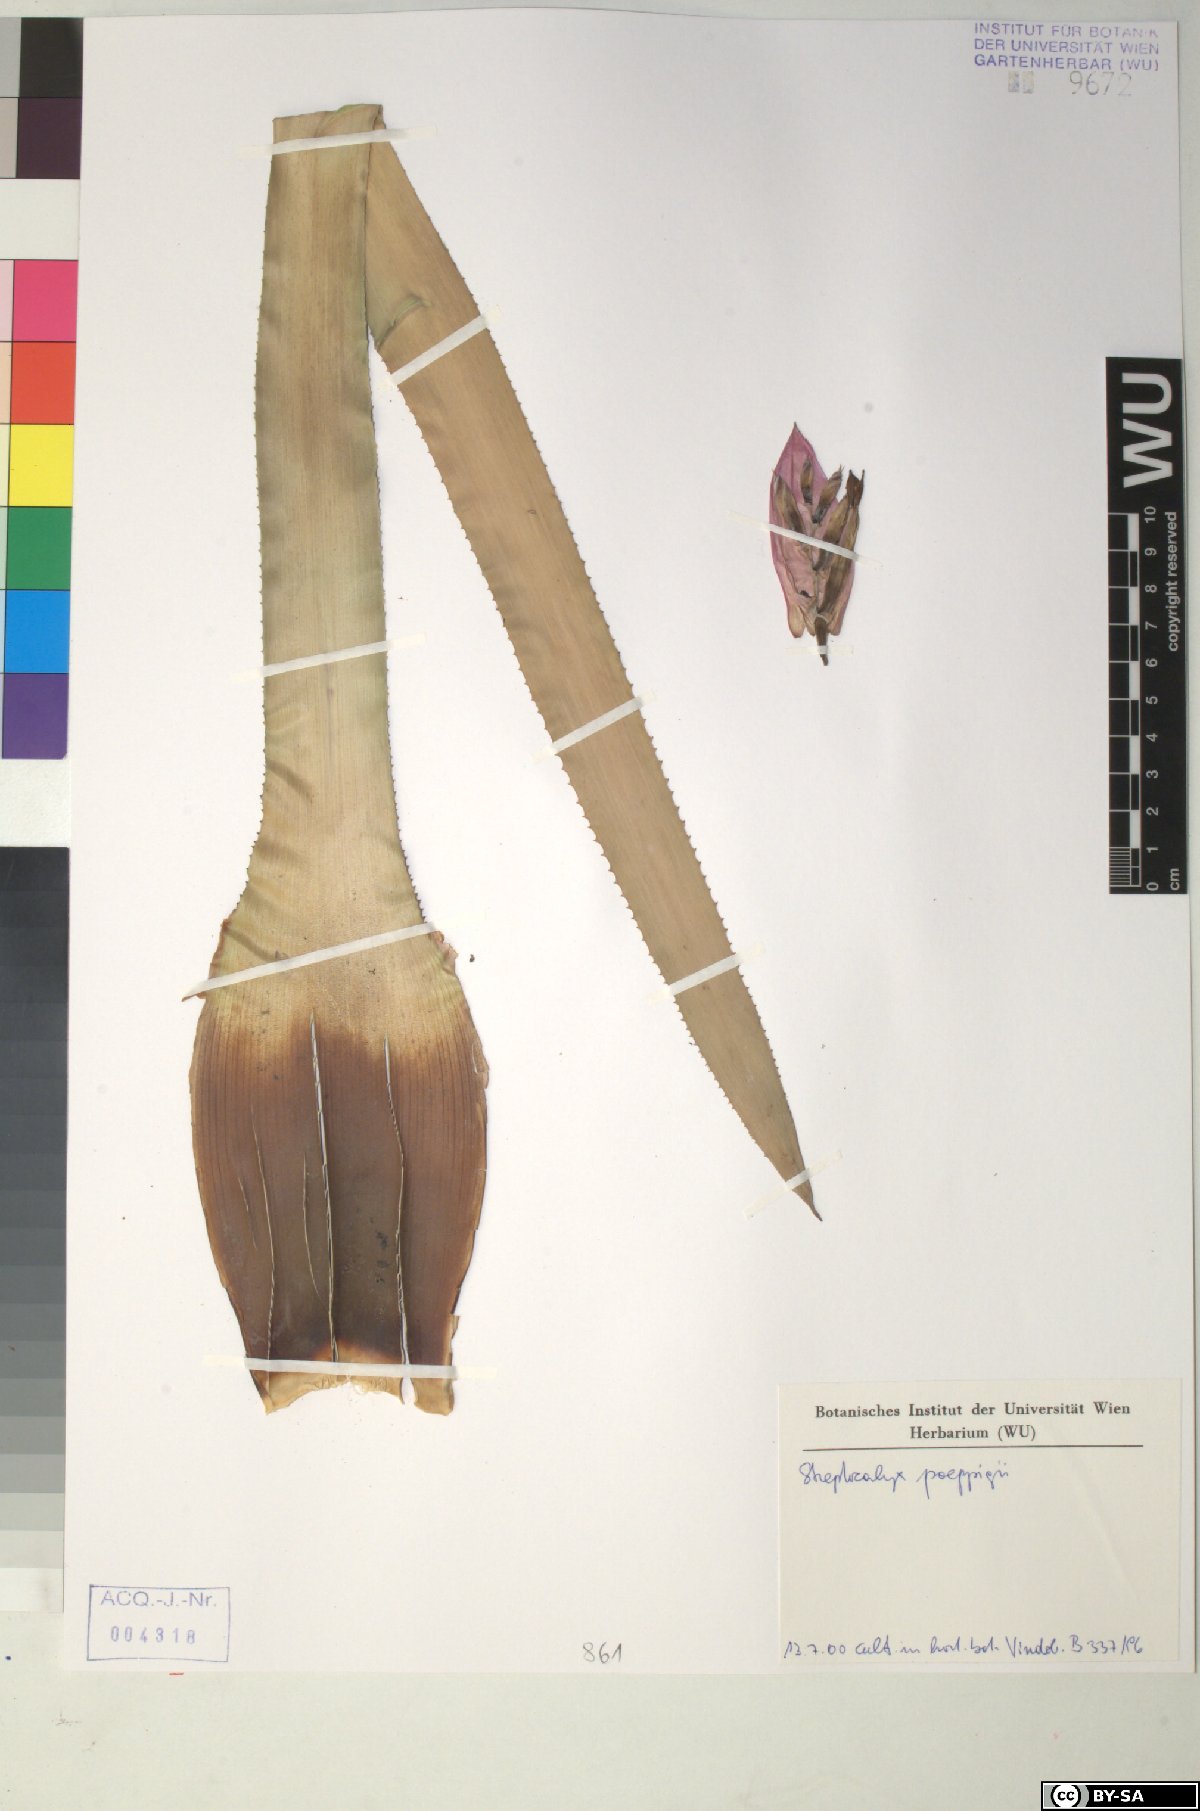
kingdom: Plantae
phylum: Tracheophyta
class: Liliopsida
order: Poales
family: Bromeliaceae
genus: Aechmea
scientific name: Aechmea vallerandii
